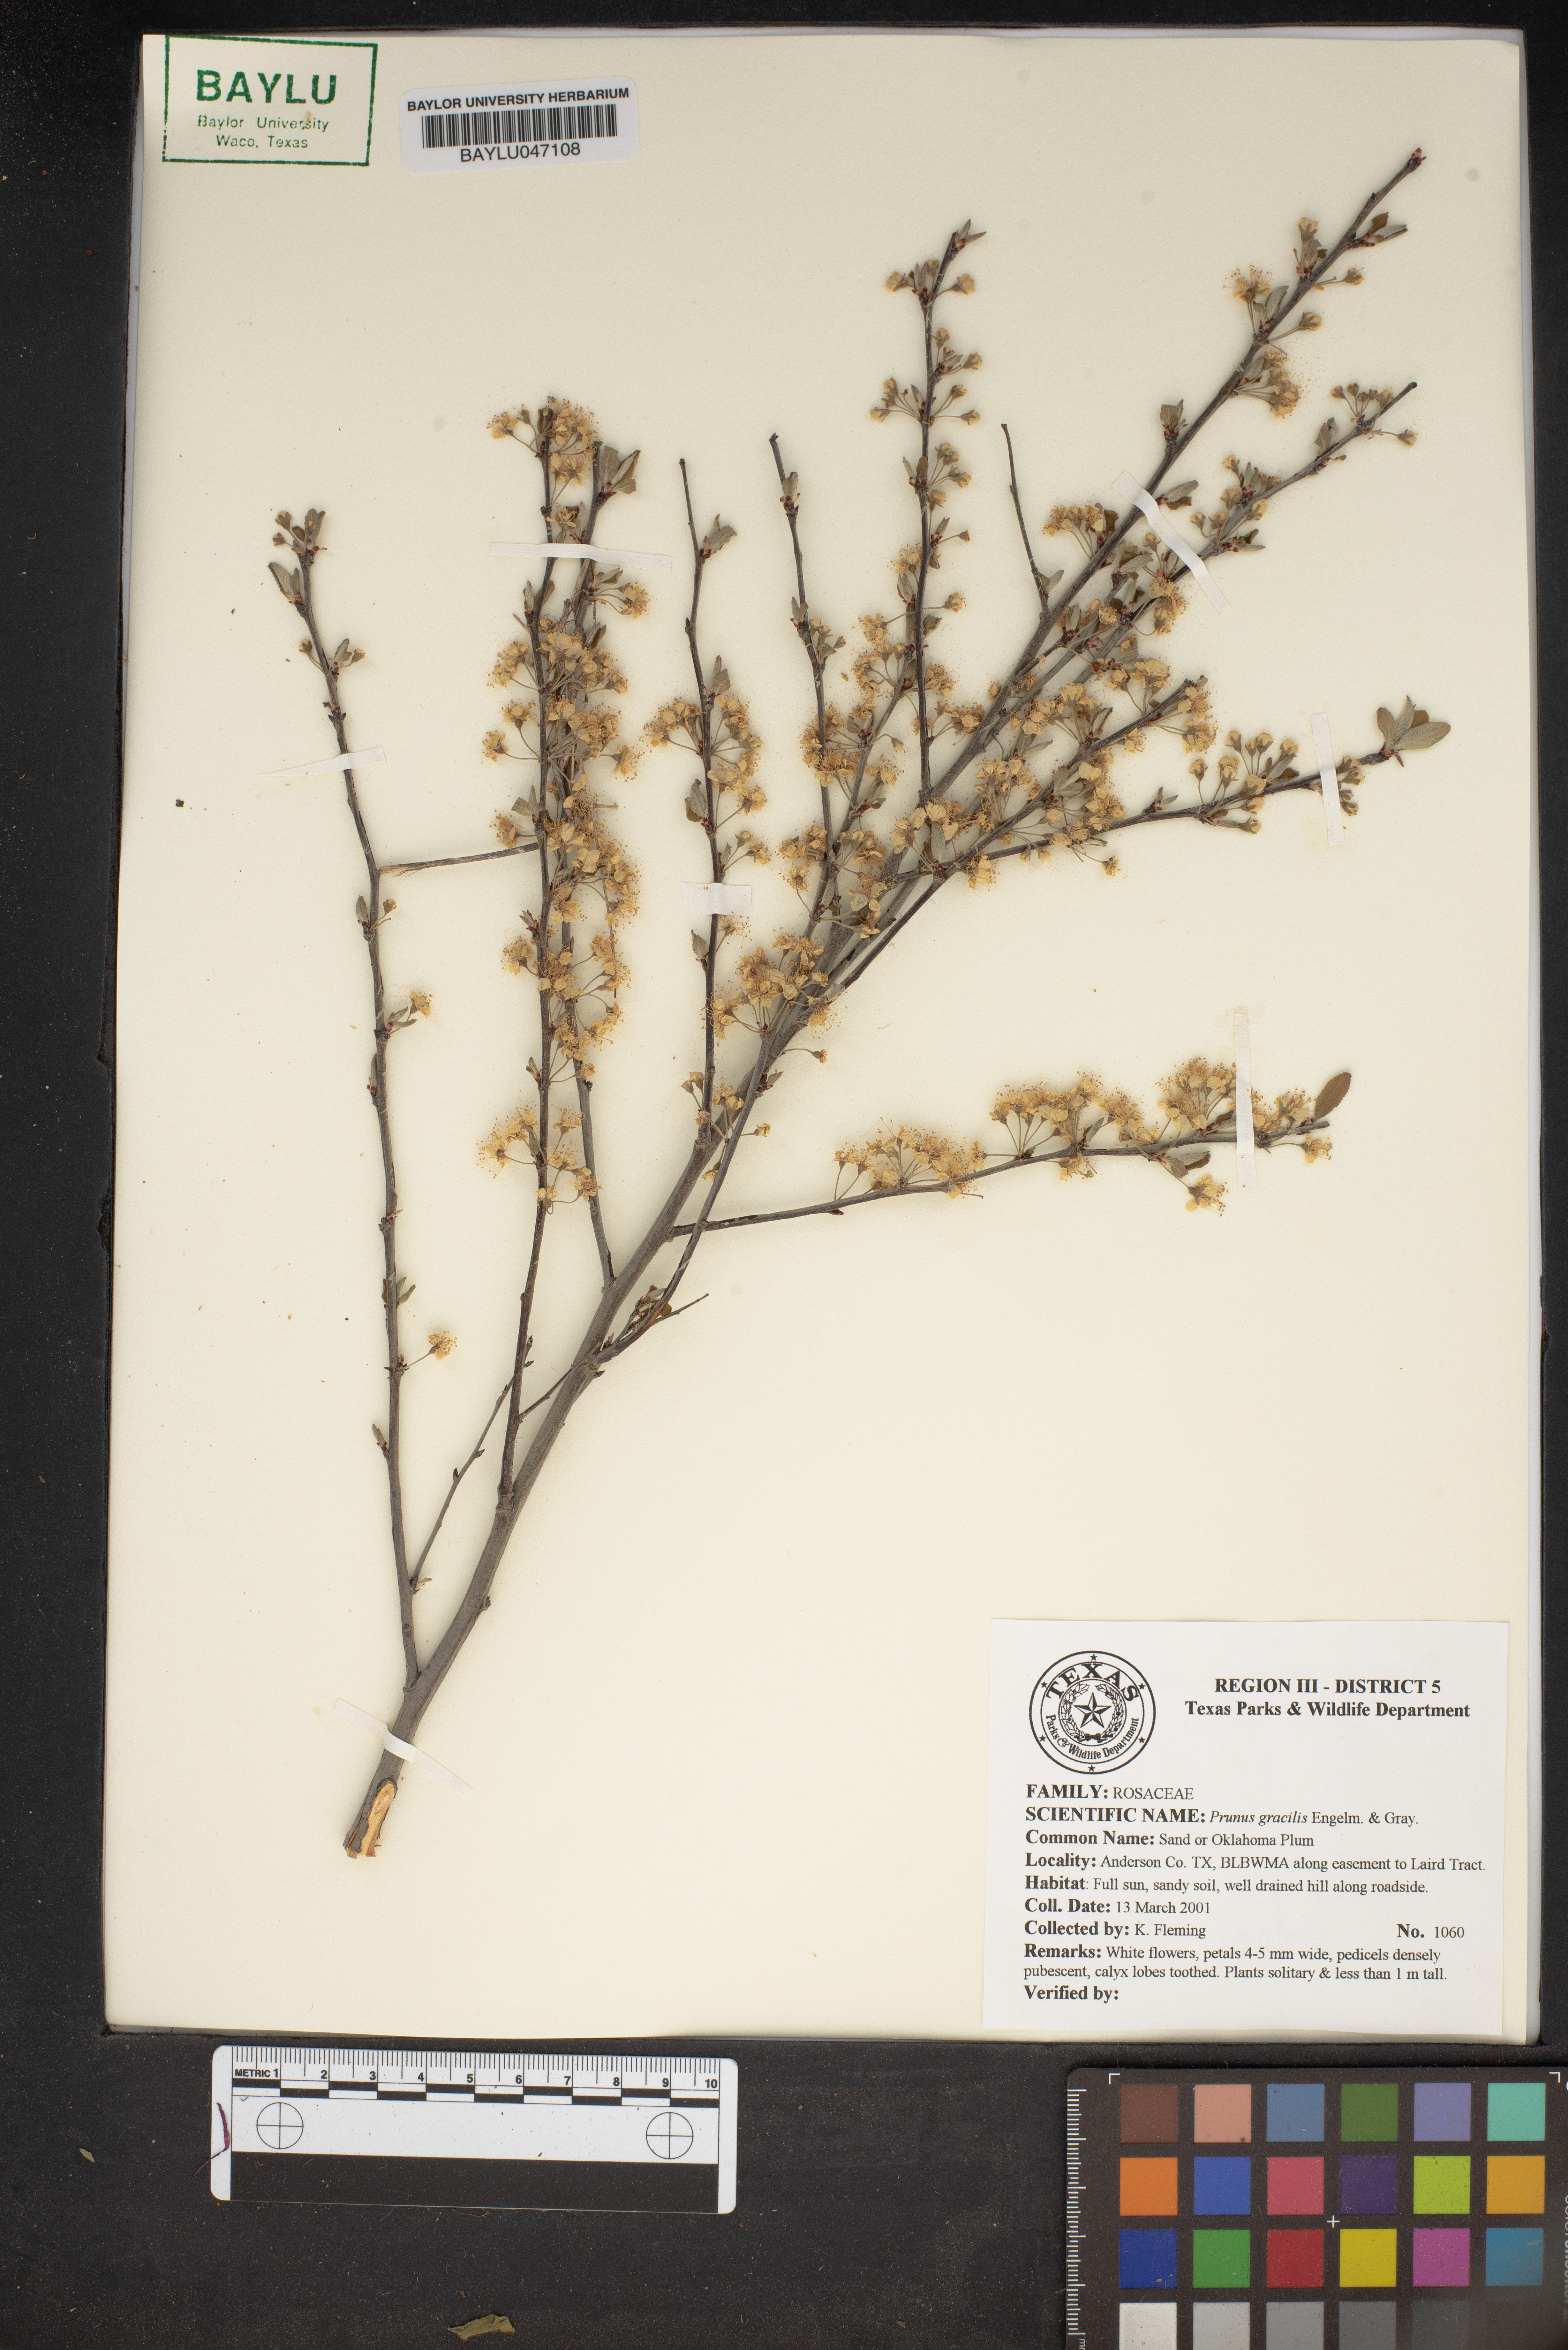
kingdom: Plantae
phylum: Tracheophyta
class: Magnoliopsida
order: Rosales
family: Rosaceae
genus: Prunus
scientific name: Prunus gracilis
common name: Oklahoma plum
